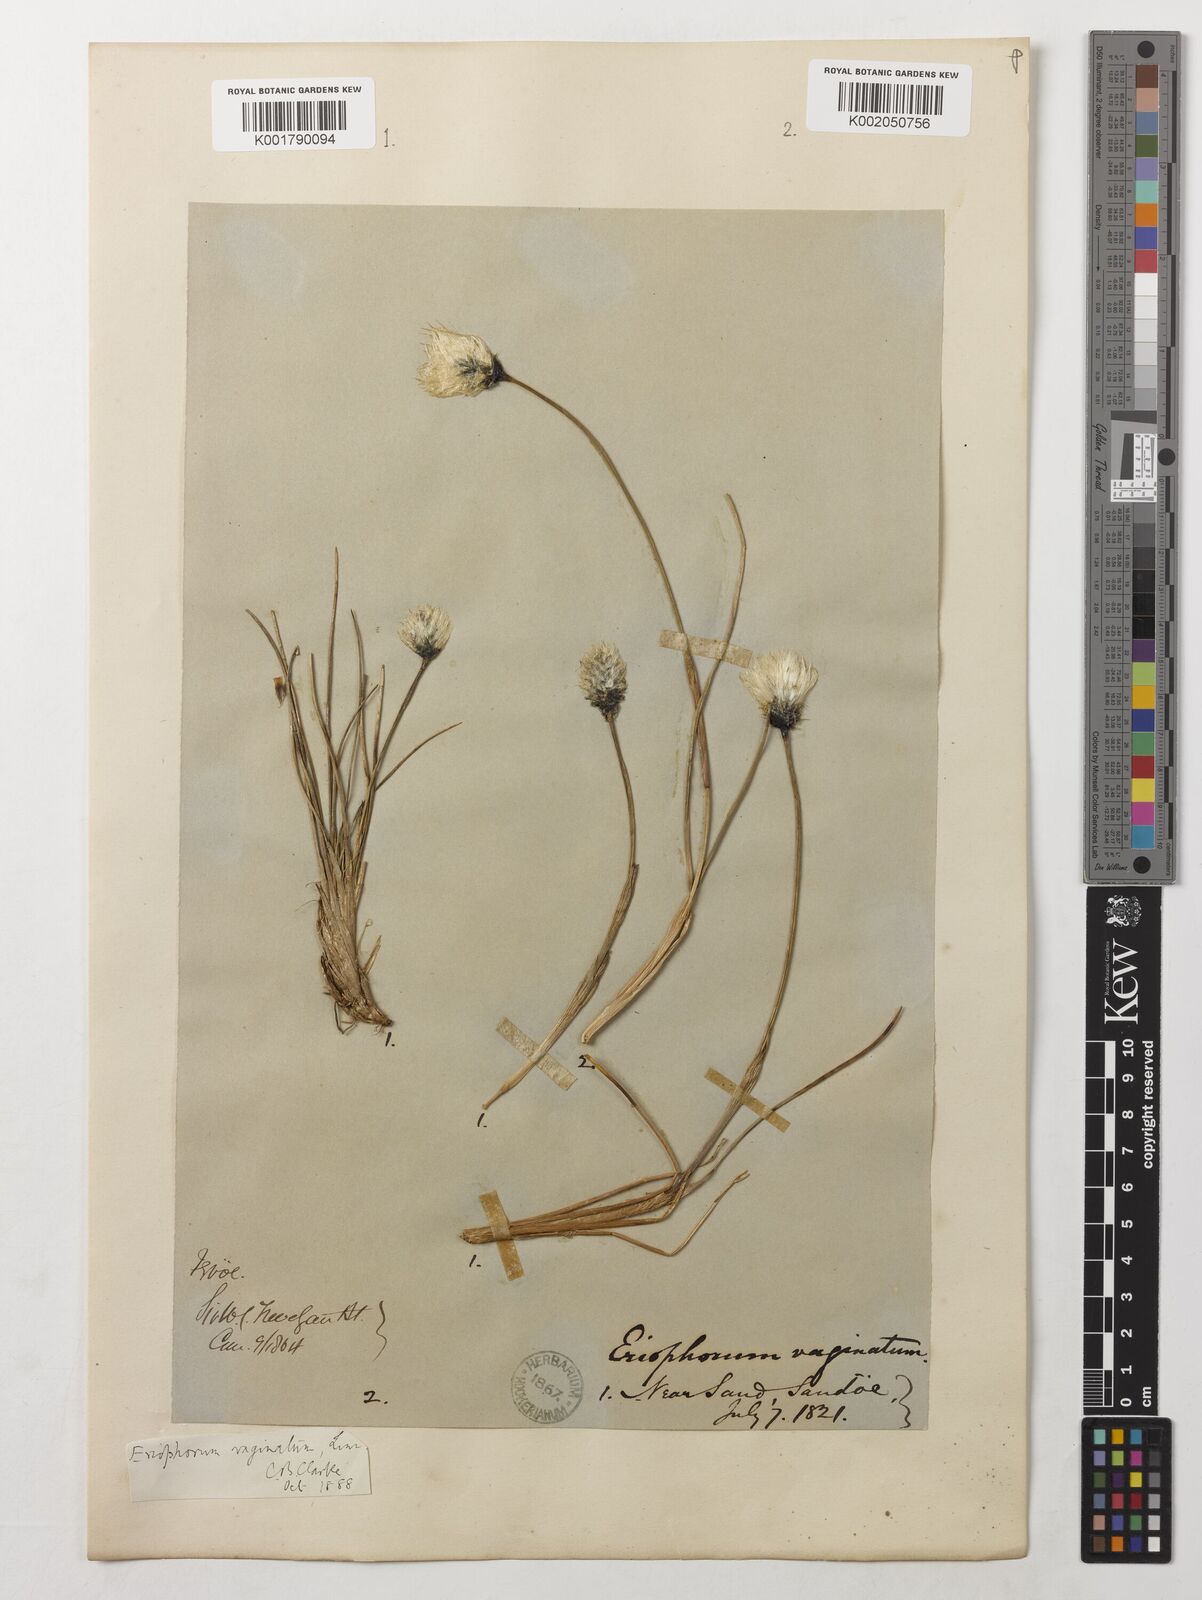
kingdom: Plantae
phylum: Tracheophyta
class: Liliopsida
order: Poales
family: Cyperaceae
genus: Eriophorum
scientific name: Eriophorum vaginatum
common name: Hare's-tail cottongrass
